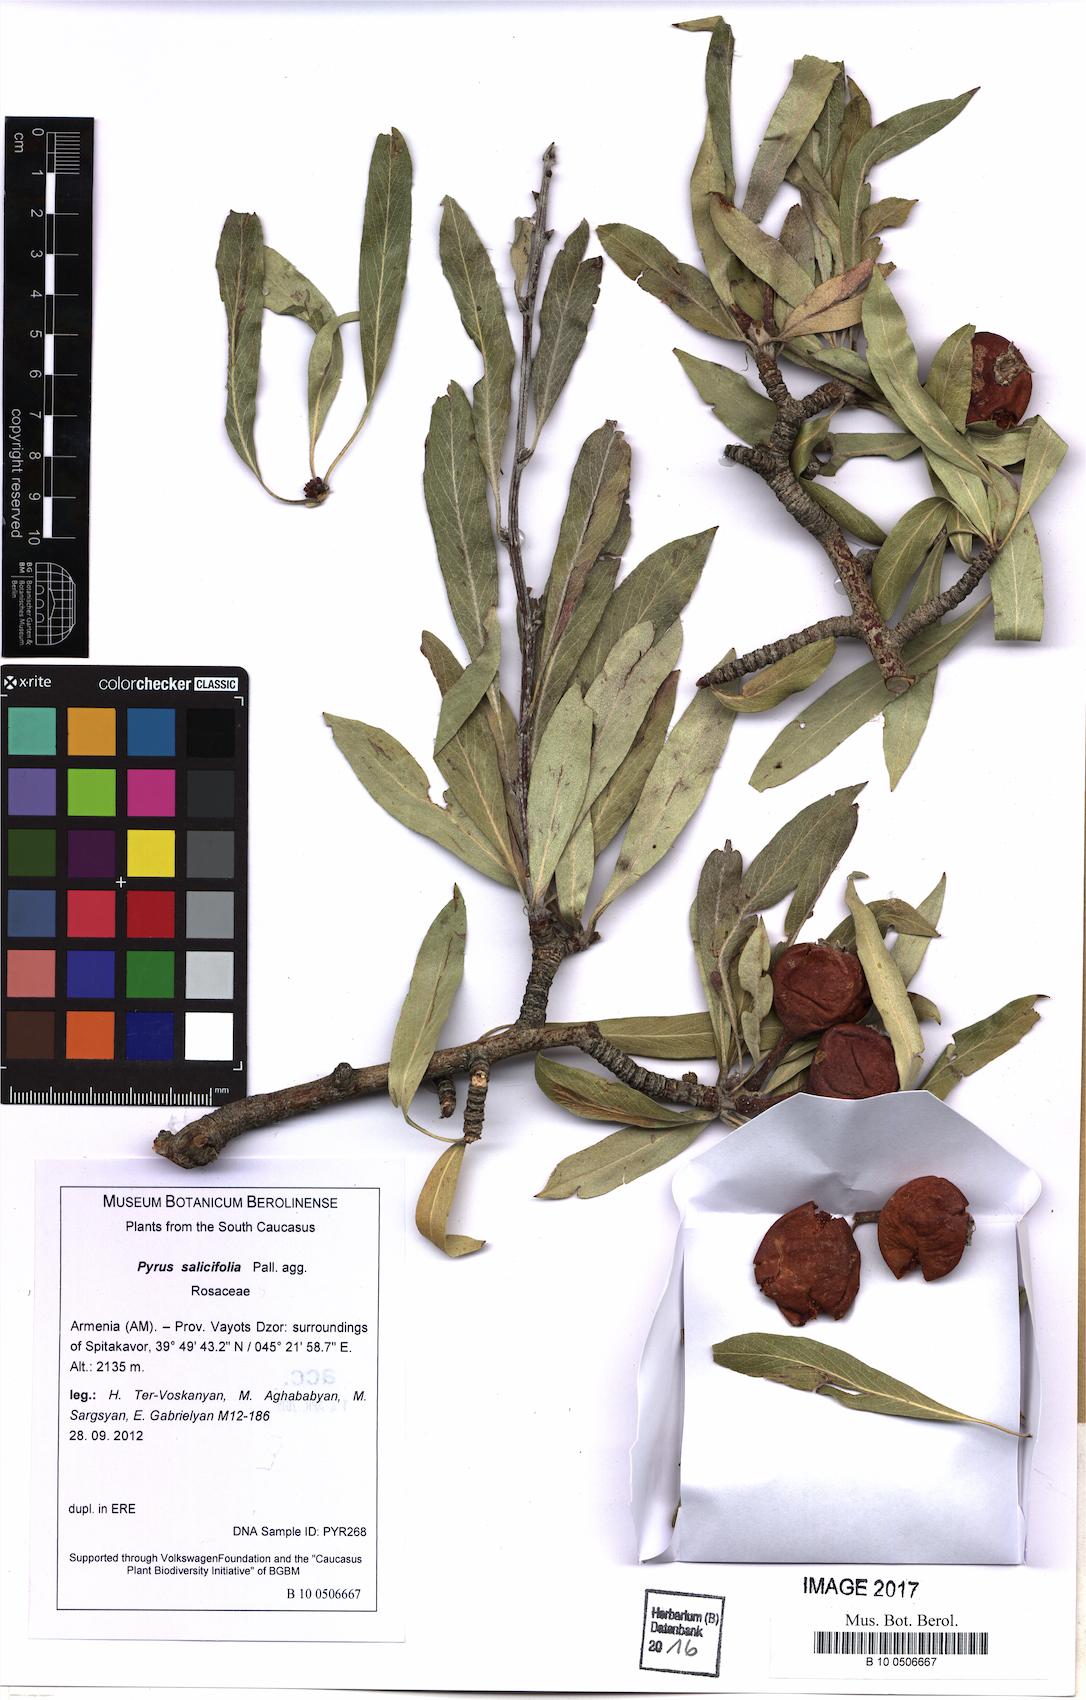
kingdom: Plantae
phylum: Tracheophyta
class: Magnoliopsida
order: Rosales
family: Rosaceae
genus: Pyrus
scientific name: Pyrus salicifolia
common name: Willow-leaved pear
